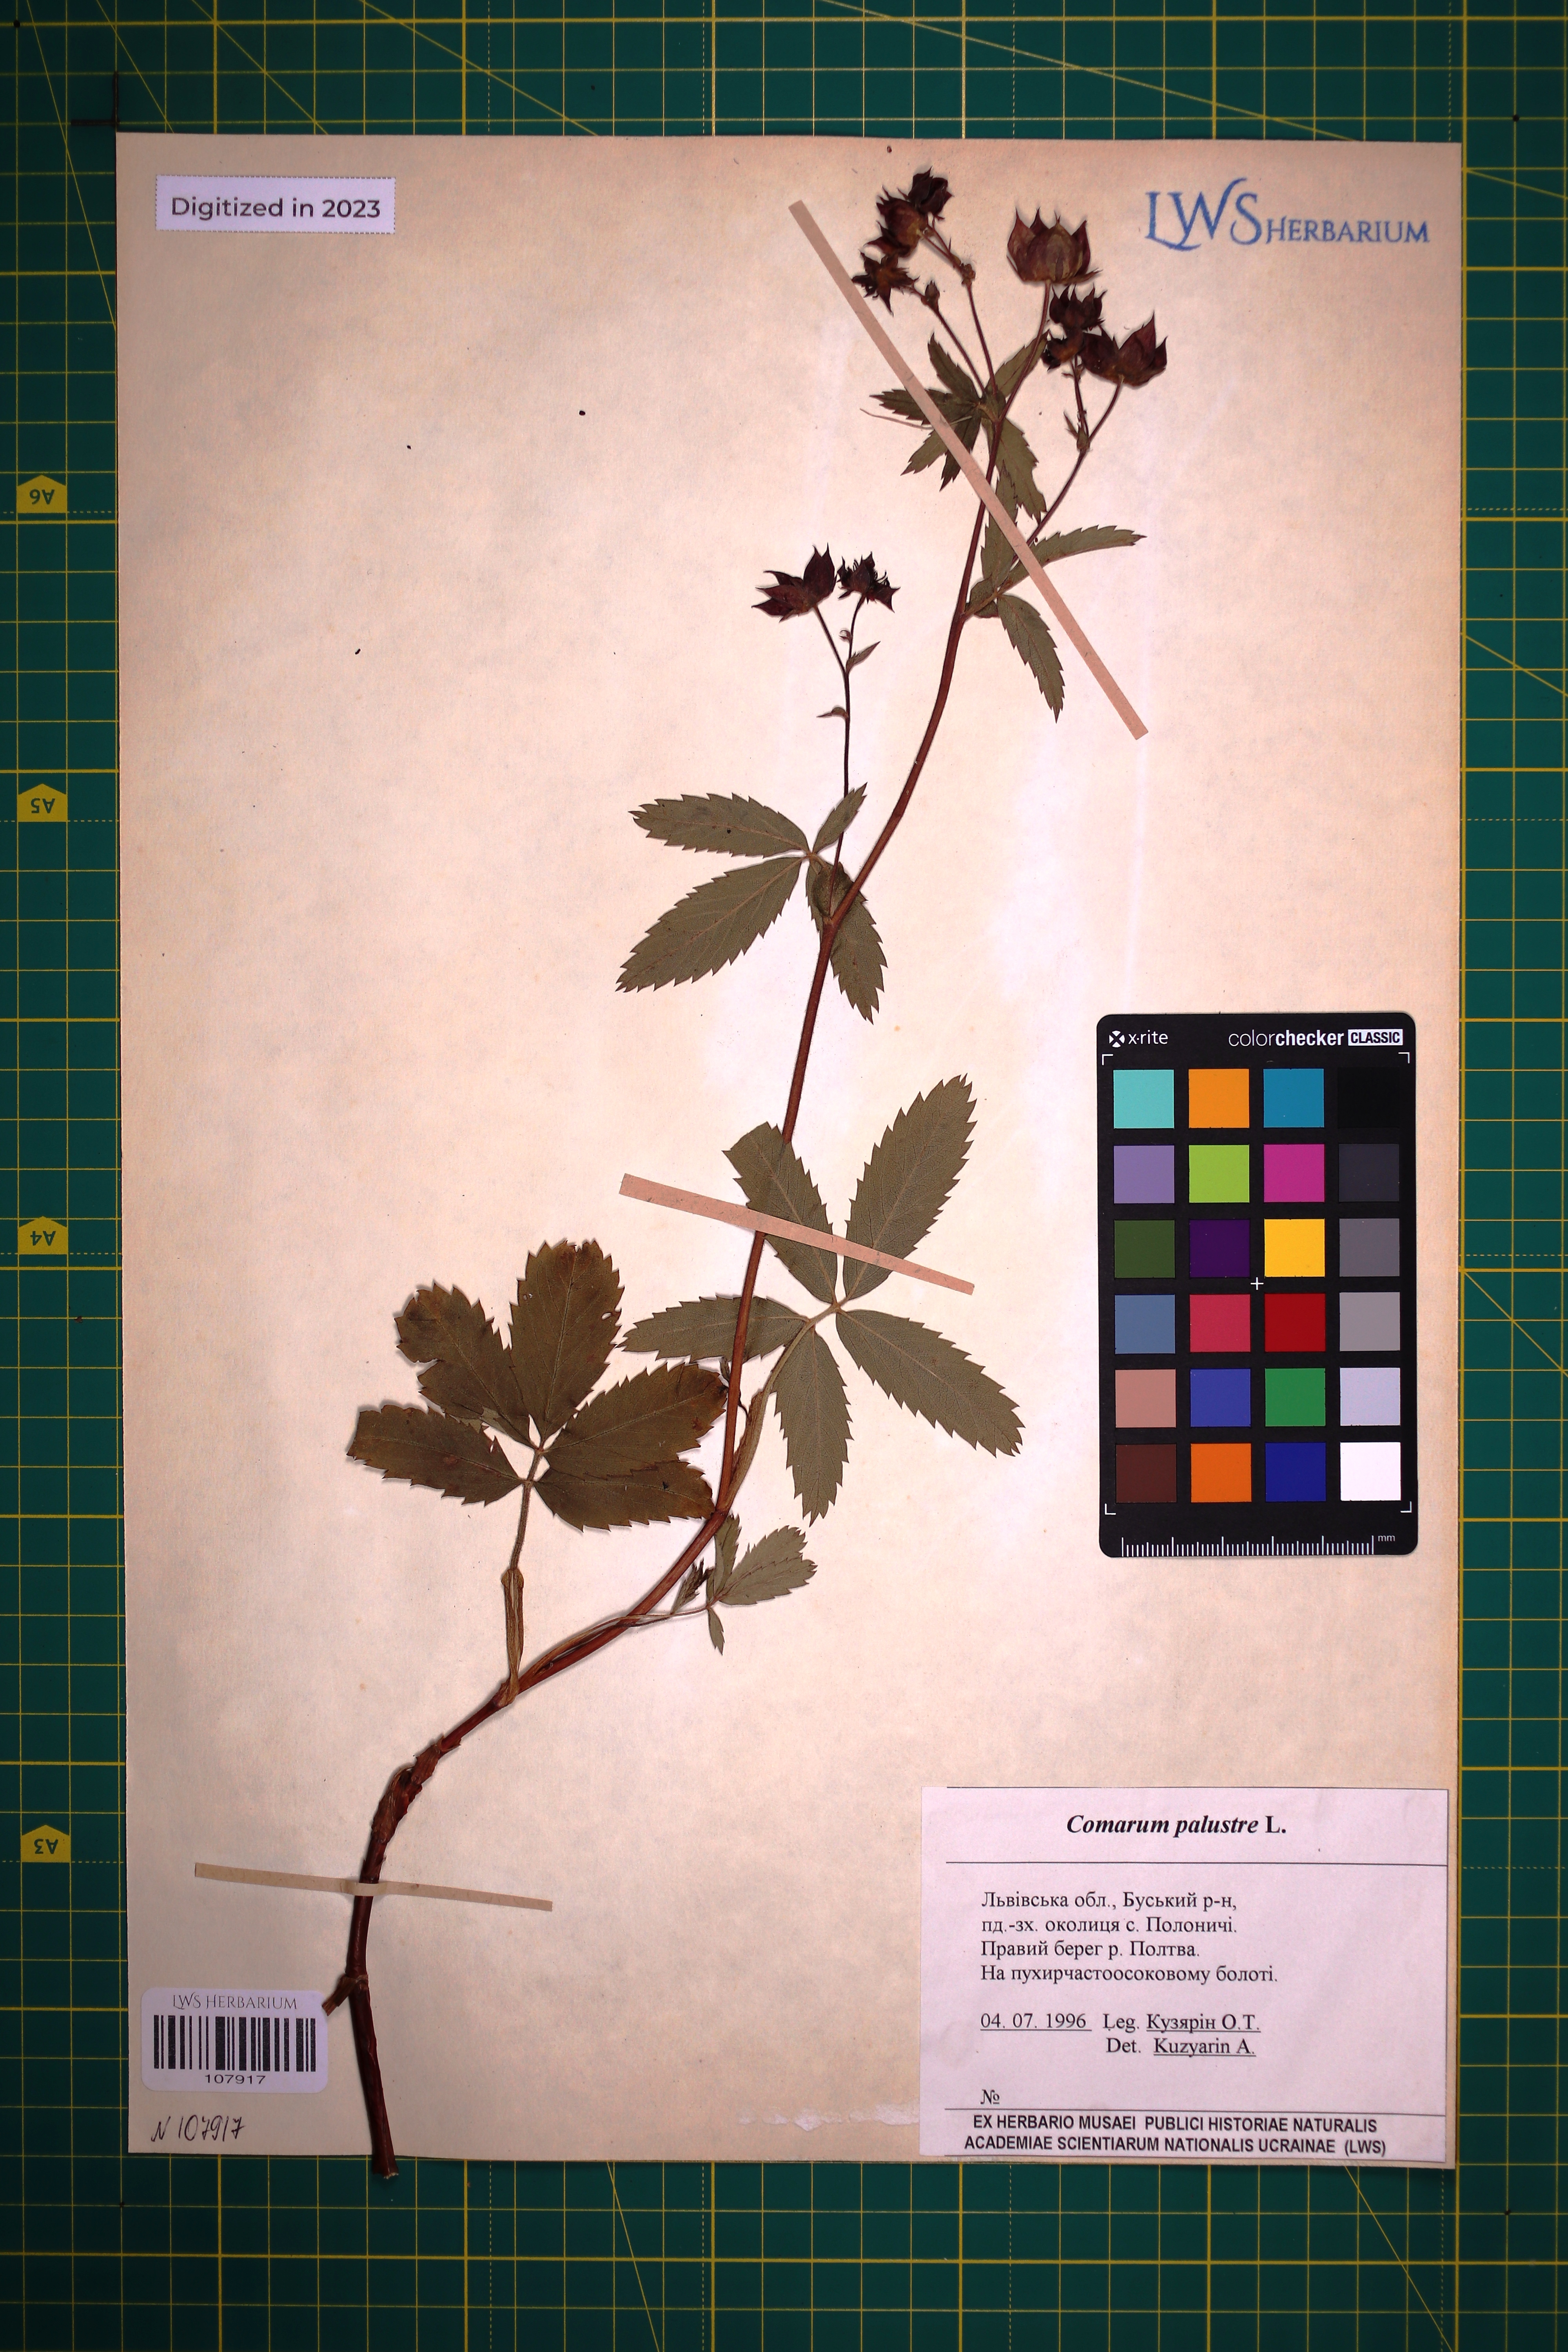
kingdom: Plantae
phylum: Tracheophyta
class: Magnoliopsida
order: Rosales
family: Rosaceae
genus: Comarum
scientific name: Comarum palustre
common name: Marsh cinquefoil
